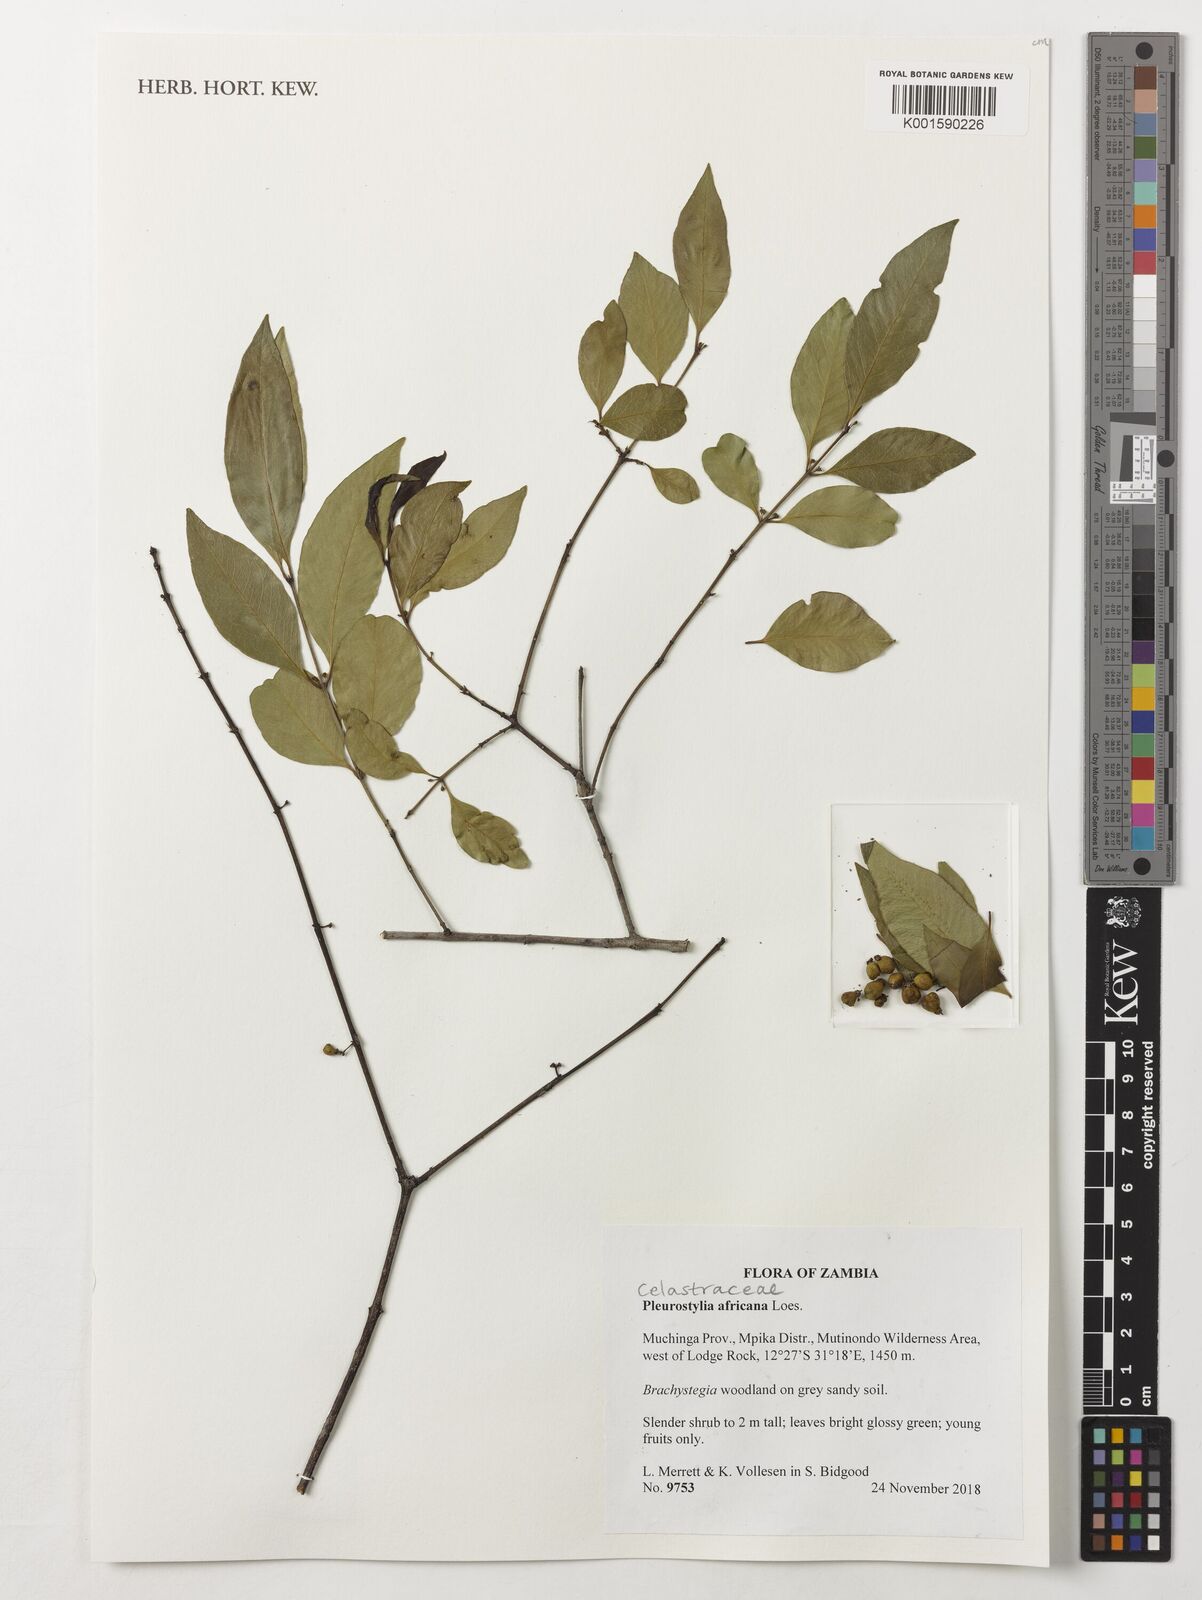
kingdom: Plantae
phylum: Tracheophyta
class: Magnoliopsida
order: Celastrales
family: Celastraceae
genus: Pleurostylia
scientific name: Pleurostylia africana
